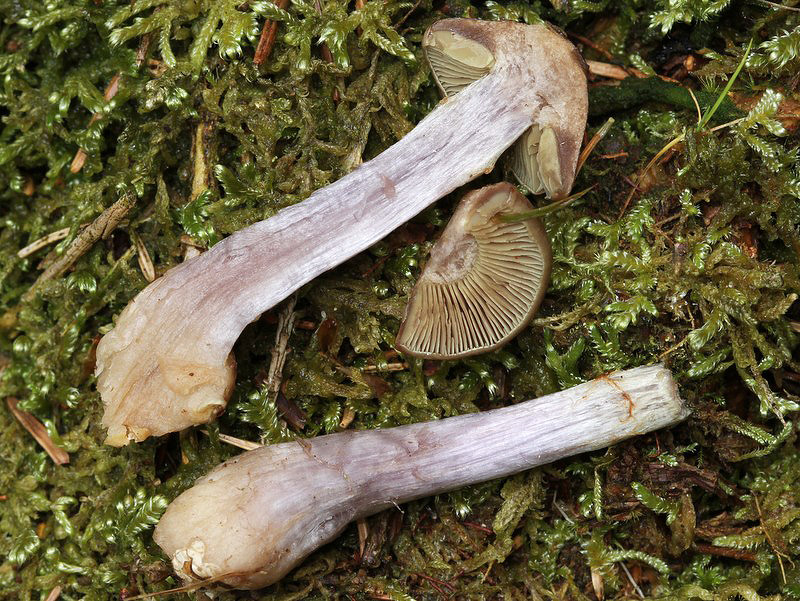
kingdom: Fungi
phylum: Basidiomycota
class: Agaricomycetes
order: Agaricales
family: Cortinariaceae
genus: Thaxterogaster
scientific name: Thaxterogaster scaurus
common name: sump-slørhat
